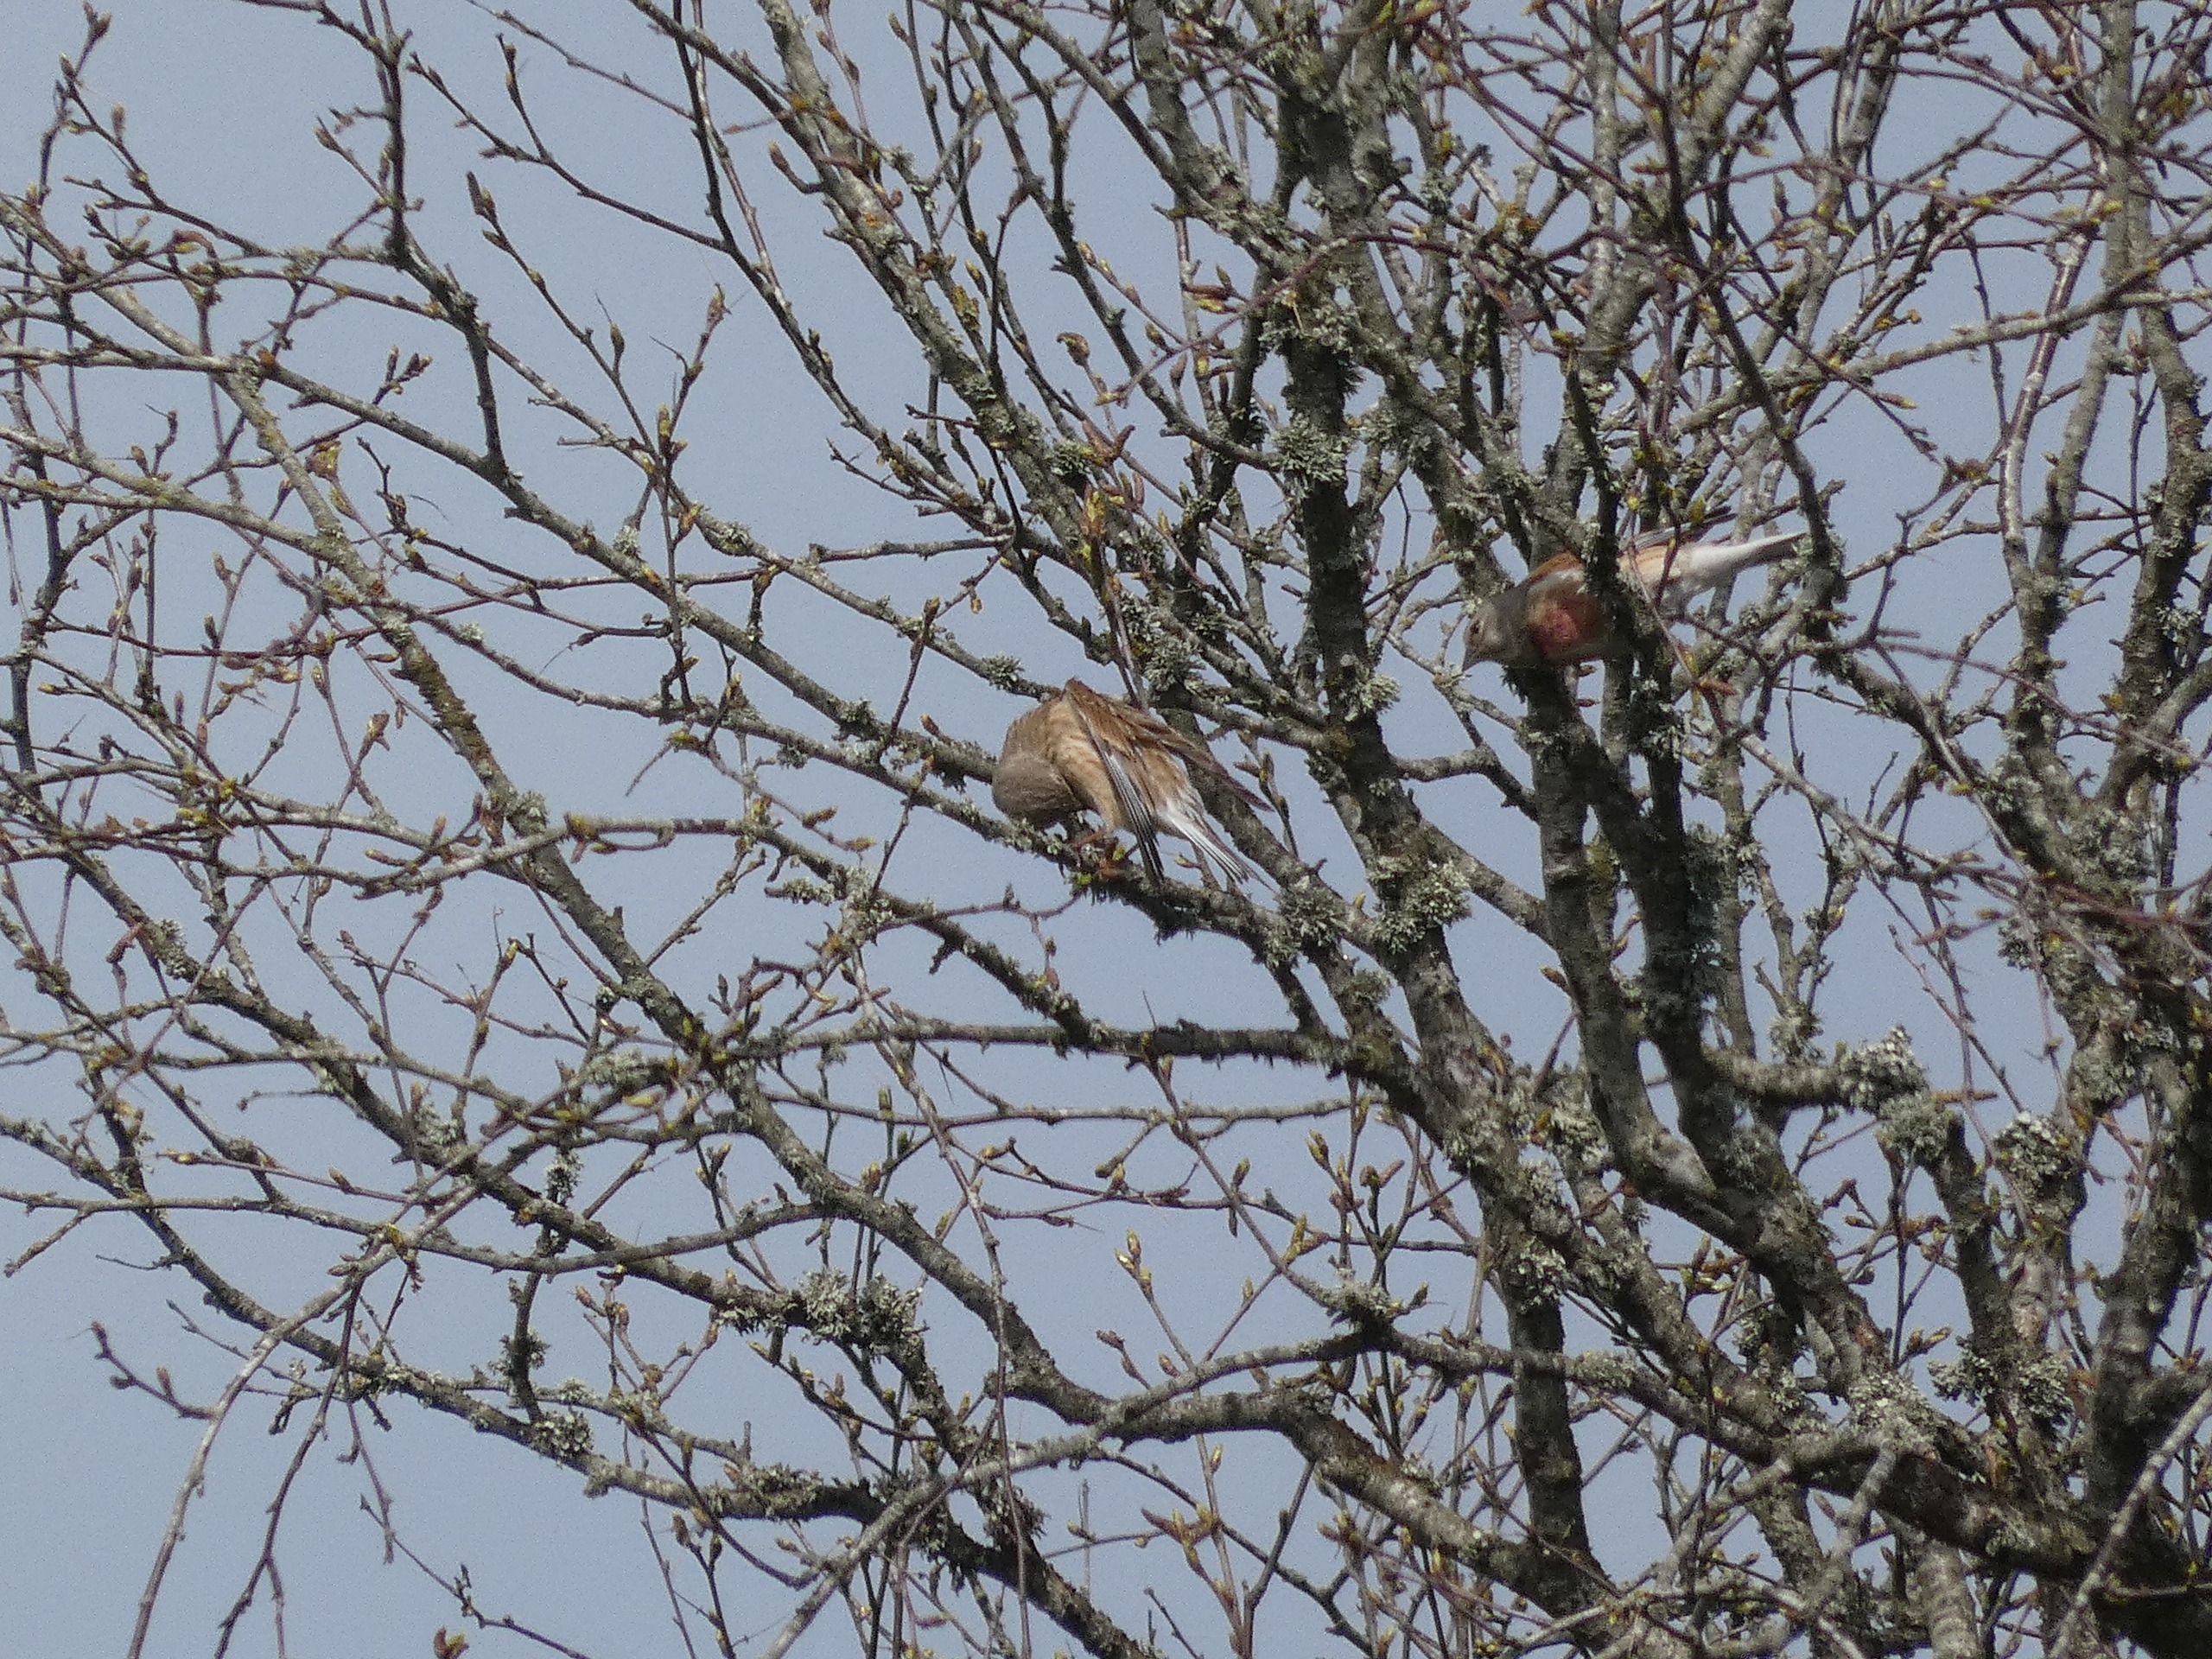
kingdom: Animalia
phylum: Chordata
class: Aves
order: Passeriformes
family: Fringillidae
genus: Linaria
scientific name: Linaria cannabina
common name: Tornirisk
